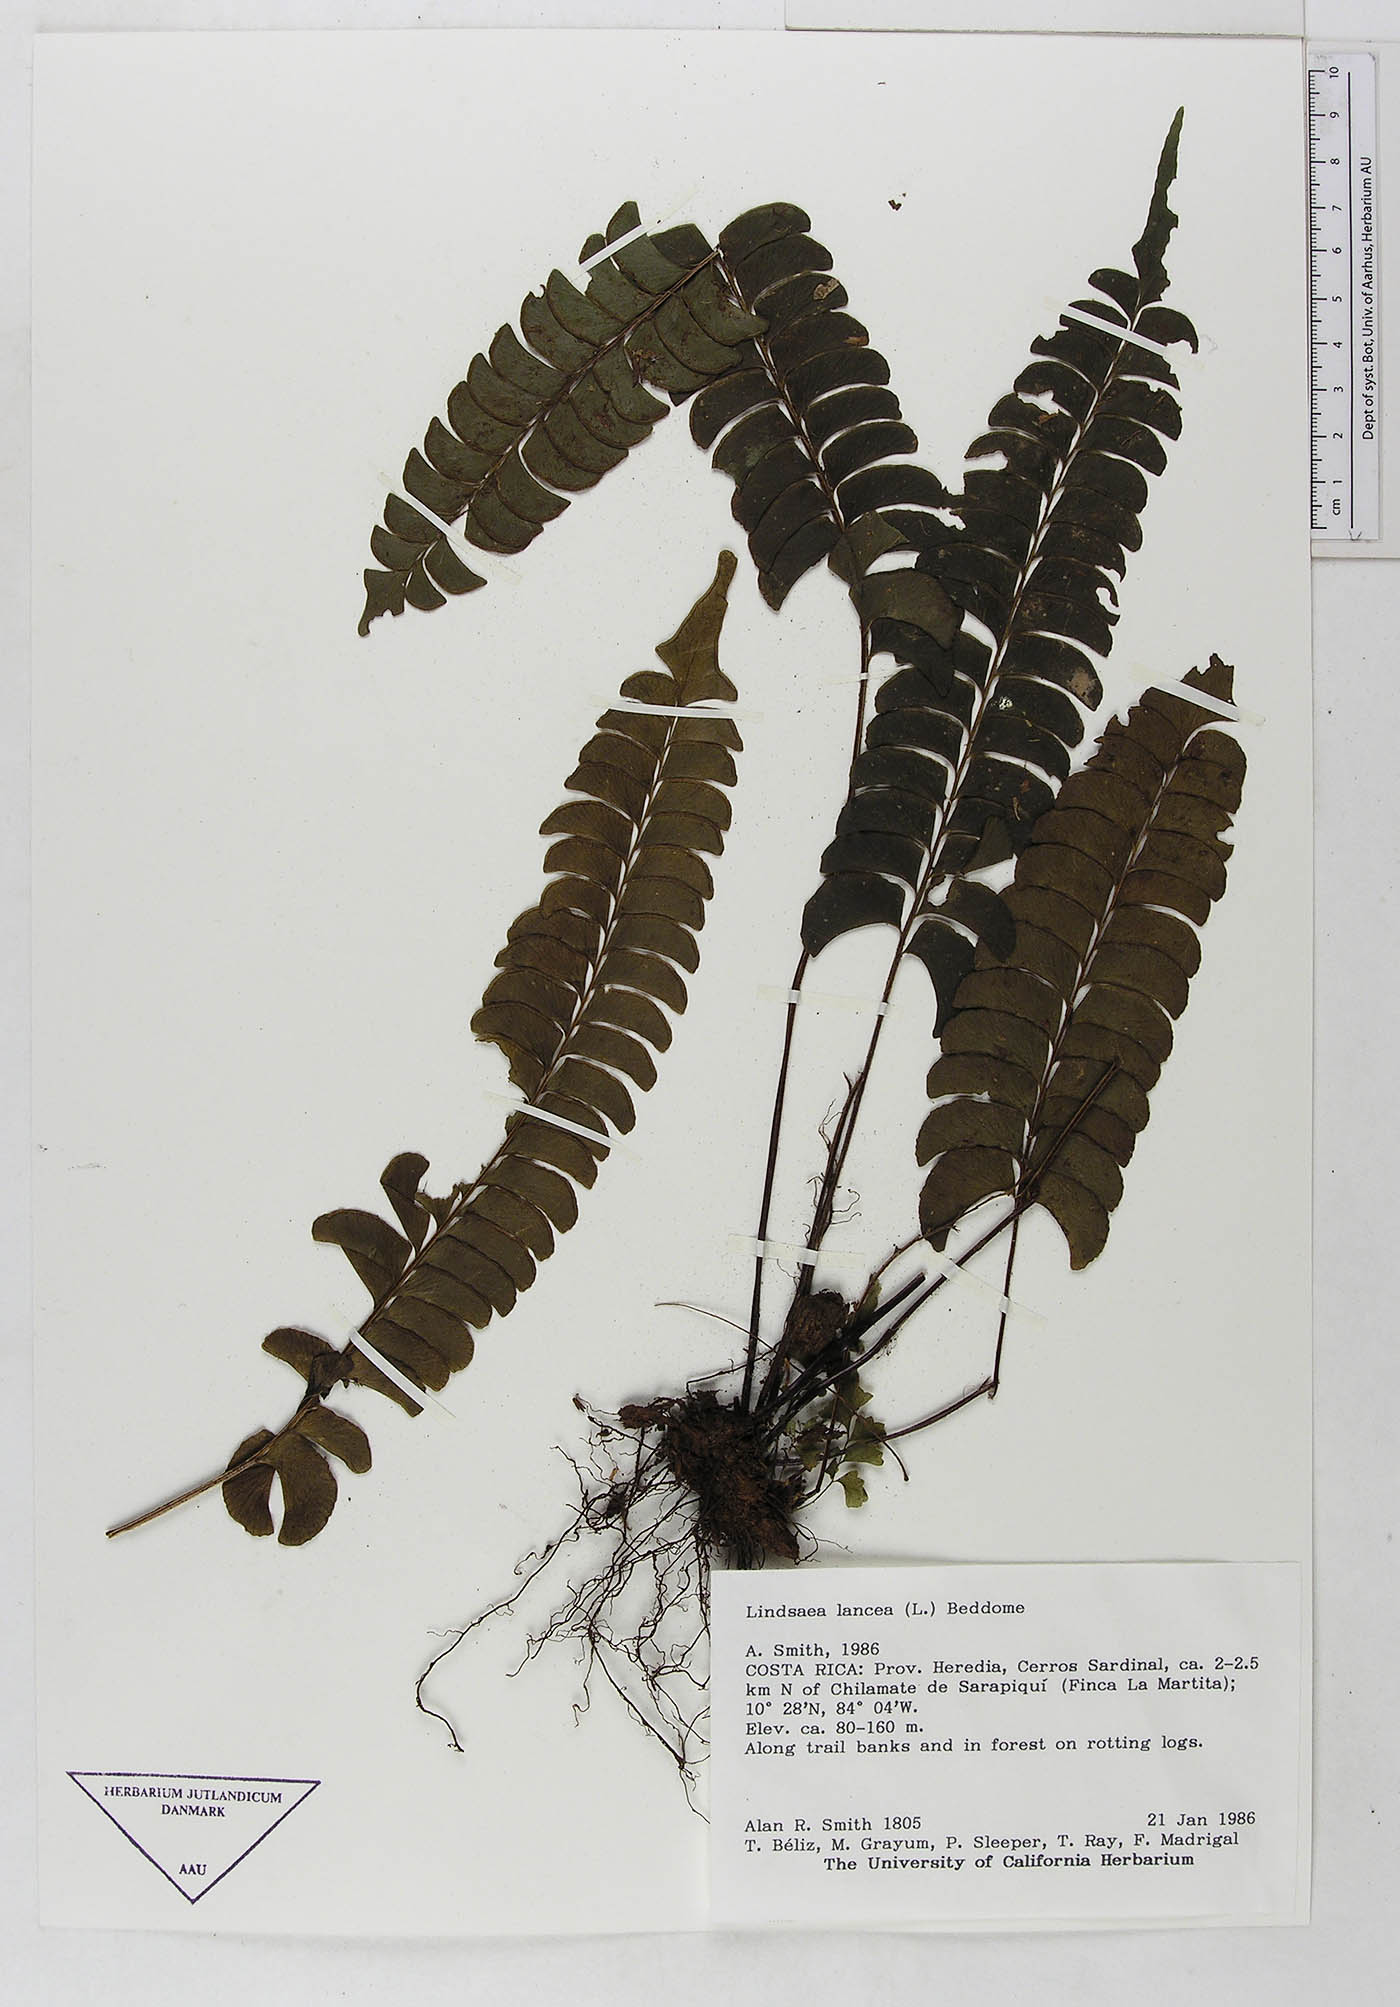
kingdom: Plantae
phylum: Tracheophyta
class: Polypodiopsida
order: Polypodiales
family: Dennstaedtiaceae
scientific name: Dennstaedtiaceae
